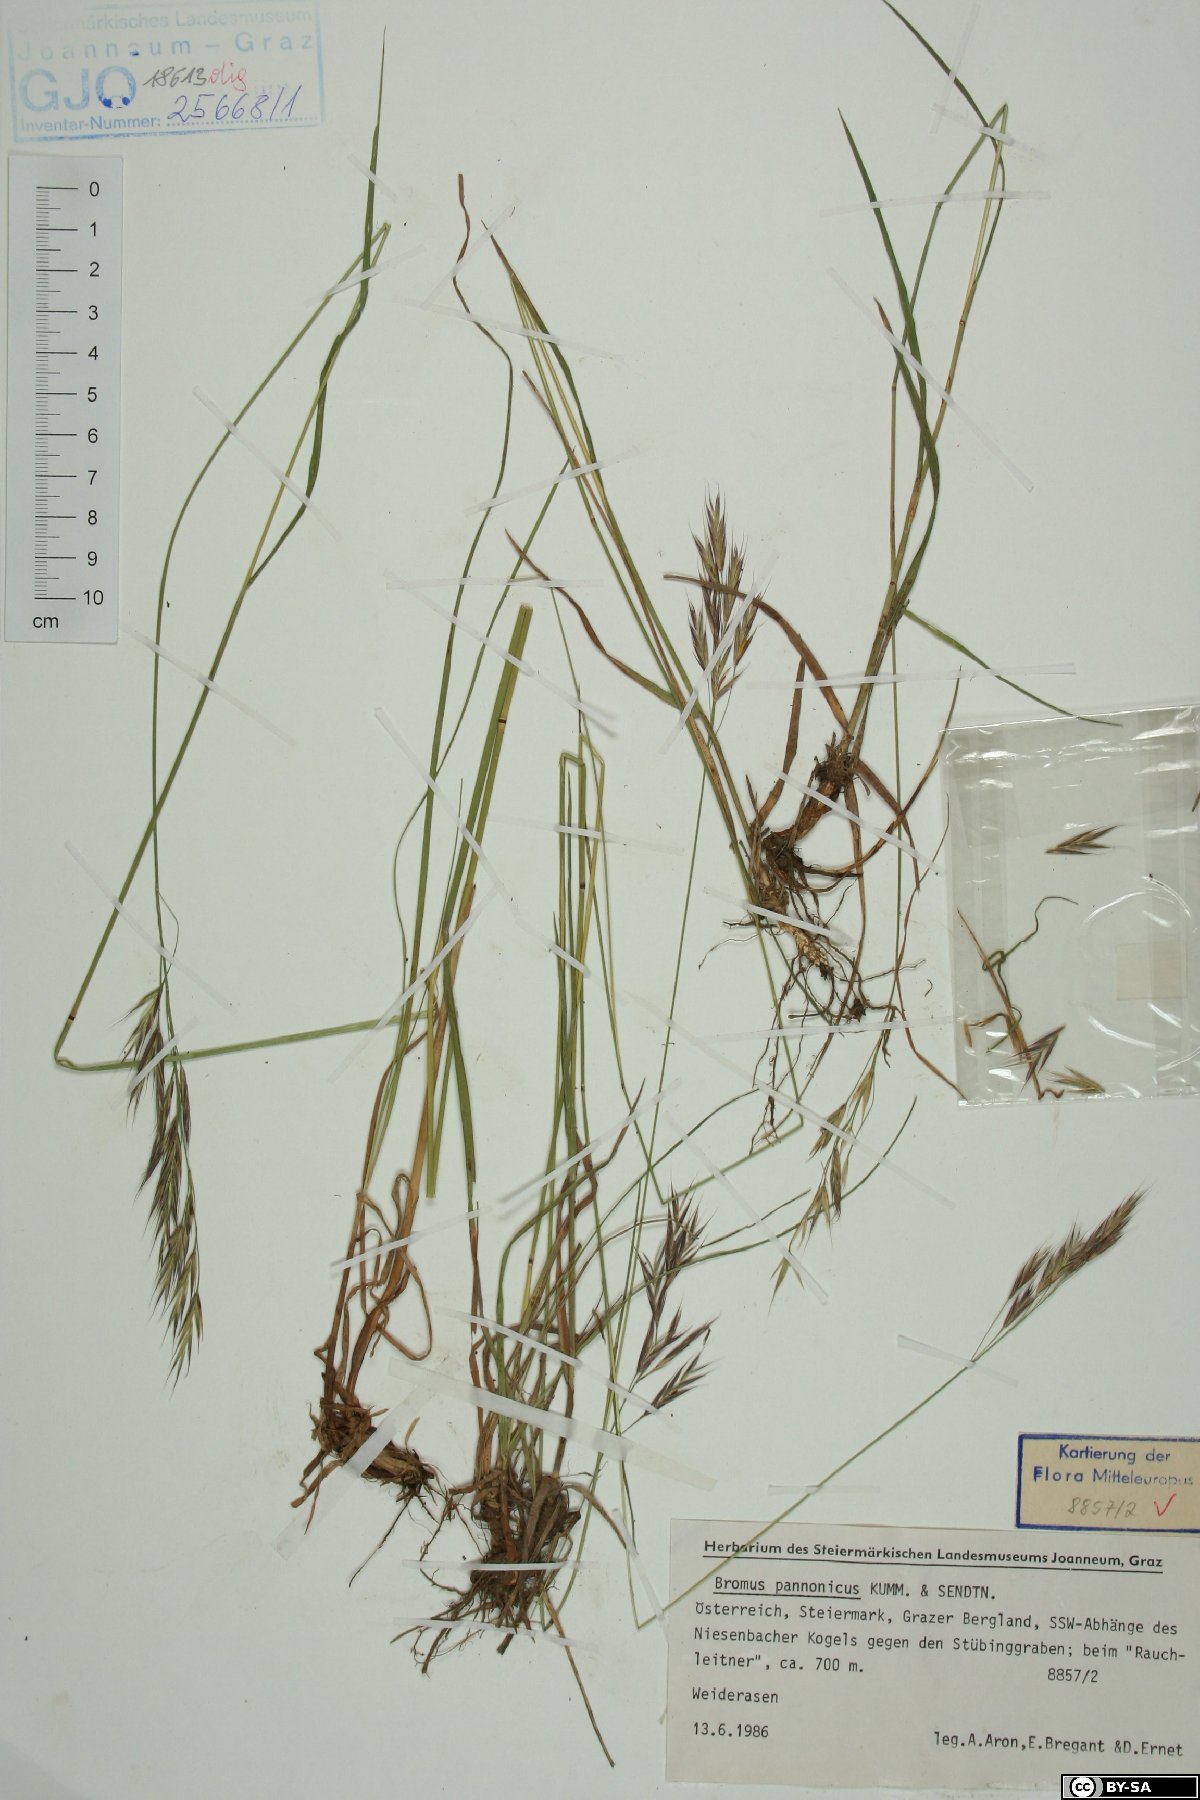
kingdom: Plantae
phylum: Tracheophyta
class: Liliopsida
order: Poales
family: Poaceae
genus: Bromus
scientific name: Bromus pannonicus
